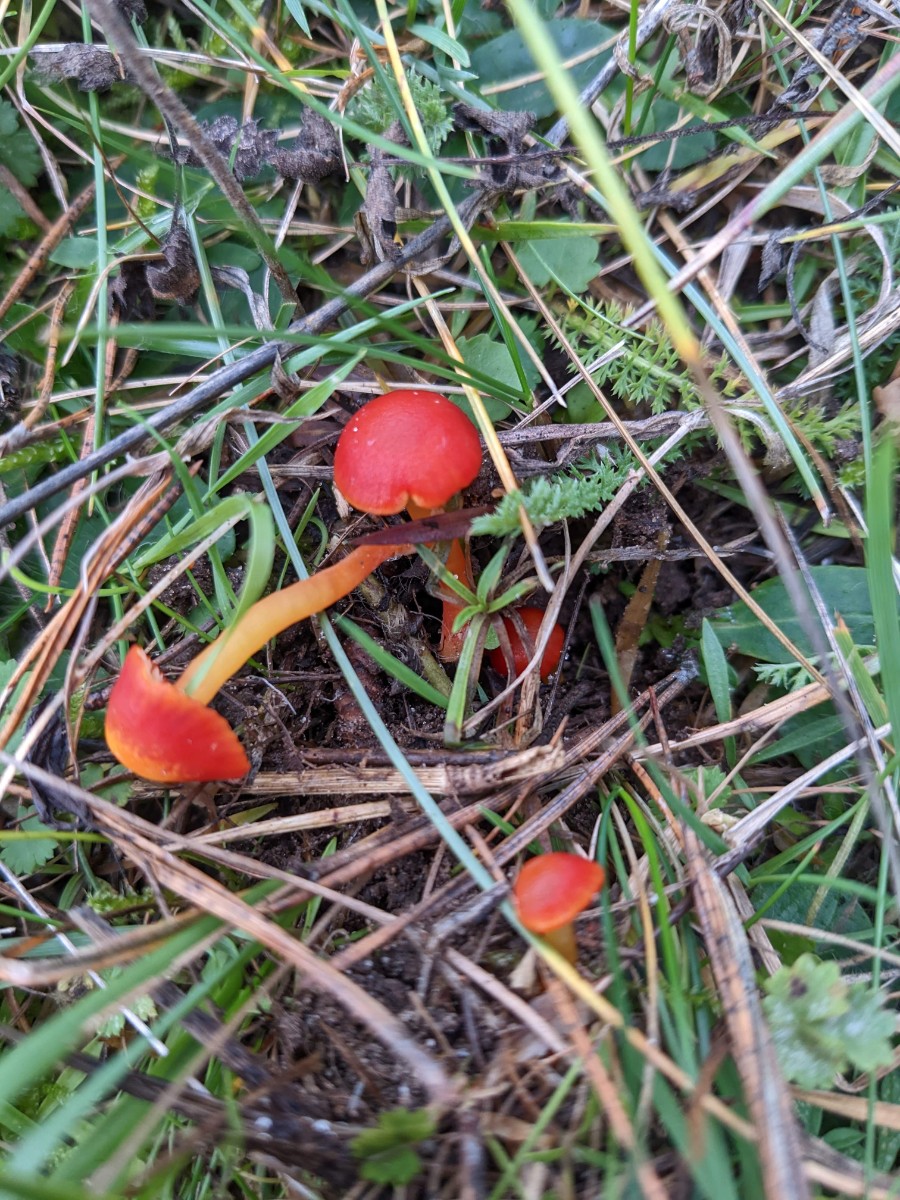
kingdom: Fungi
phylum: Basidiomycota
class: Agaricomycetes
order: Agaricales
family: Hygrophoraceae
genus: Hygrocybe
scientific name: Hygrocybe insipida
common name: liden vokshat
